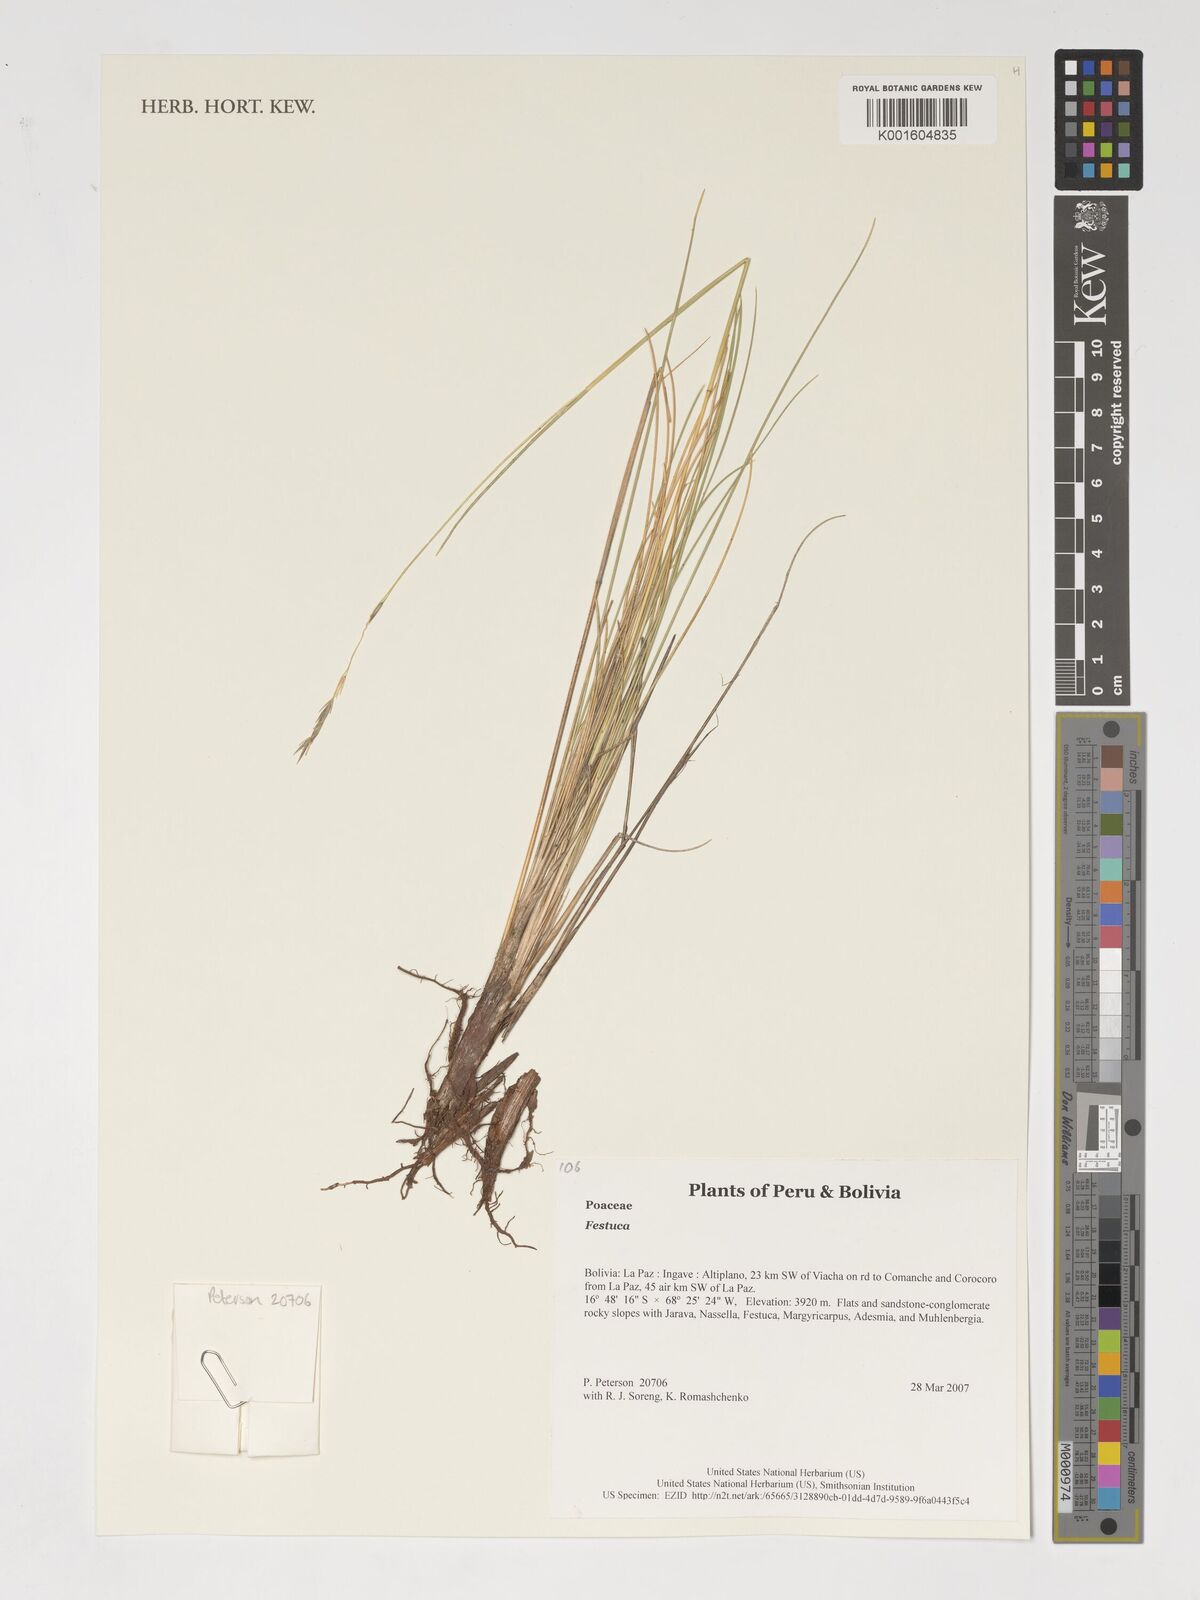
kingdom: Plantae
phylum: Tracheophyta
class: Liliopsida
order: Poales
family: Poaceae
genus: Festuca
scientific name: Festuca
